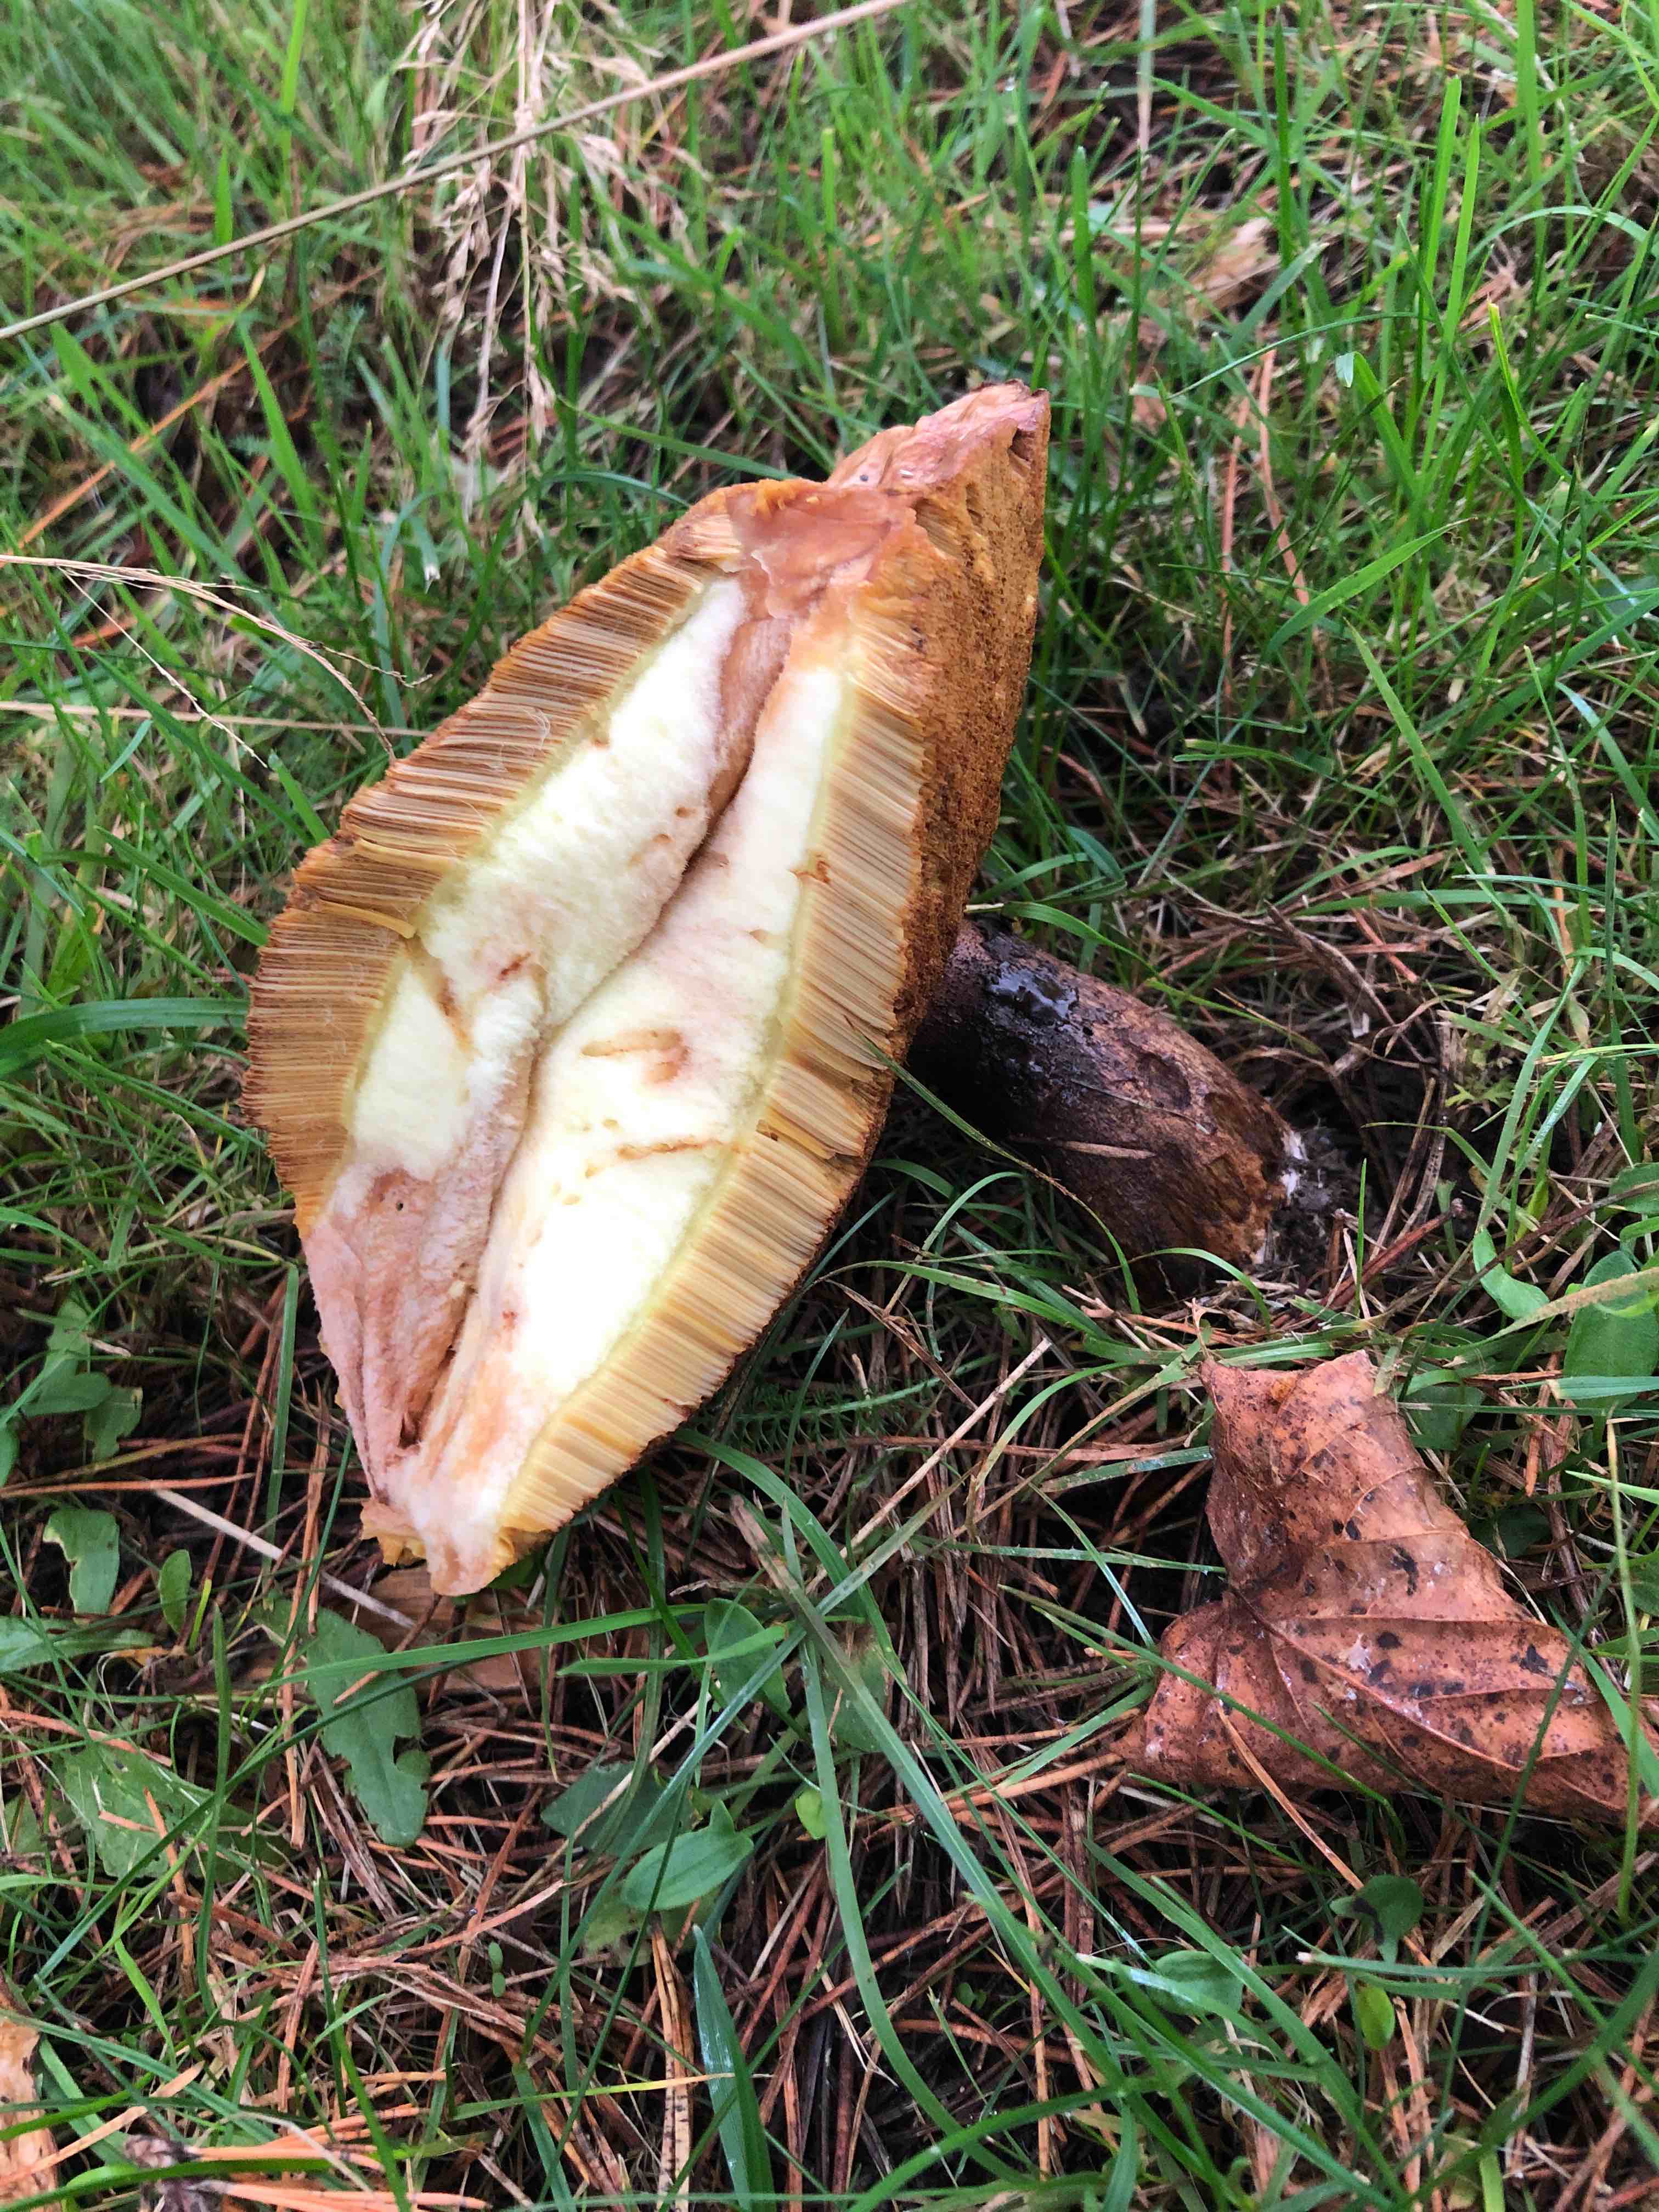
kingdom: Fungi
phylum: Basidiomycota
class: Agaricomycetes
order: Boletales
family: Suillaceae
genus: Suillus
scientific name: Suillus luteus
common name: brungul slimrørhat
